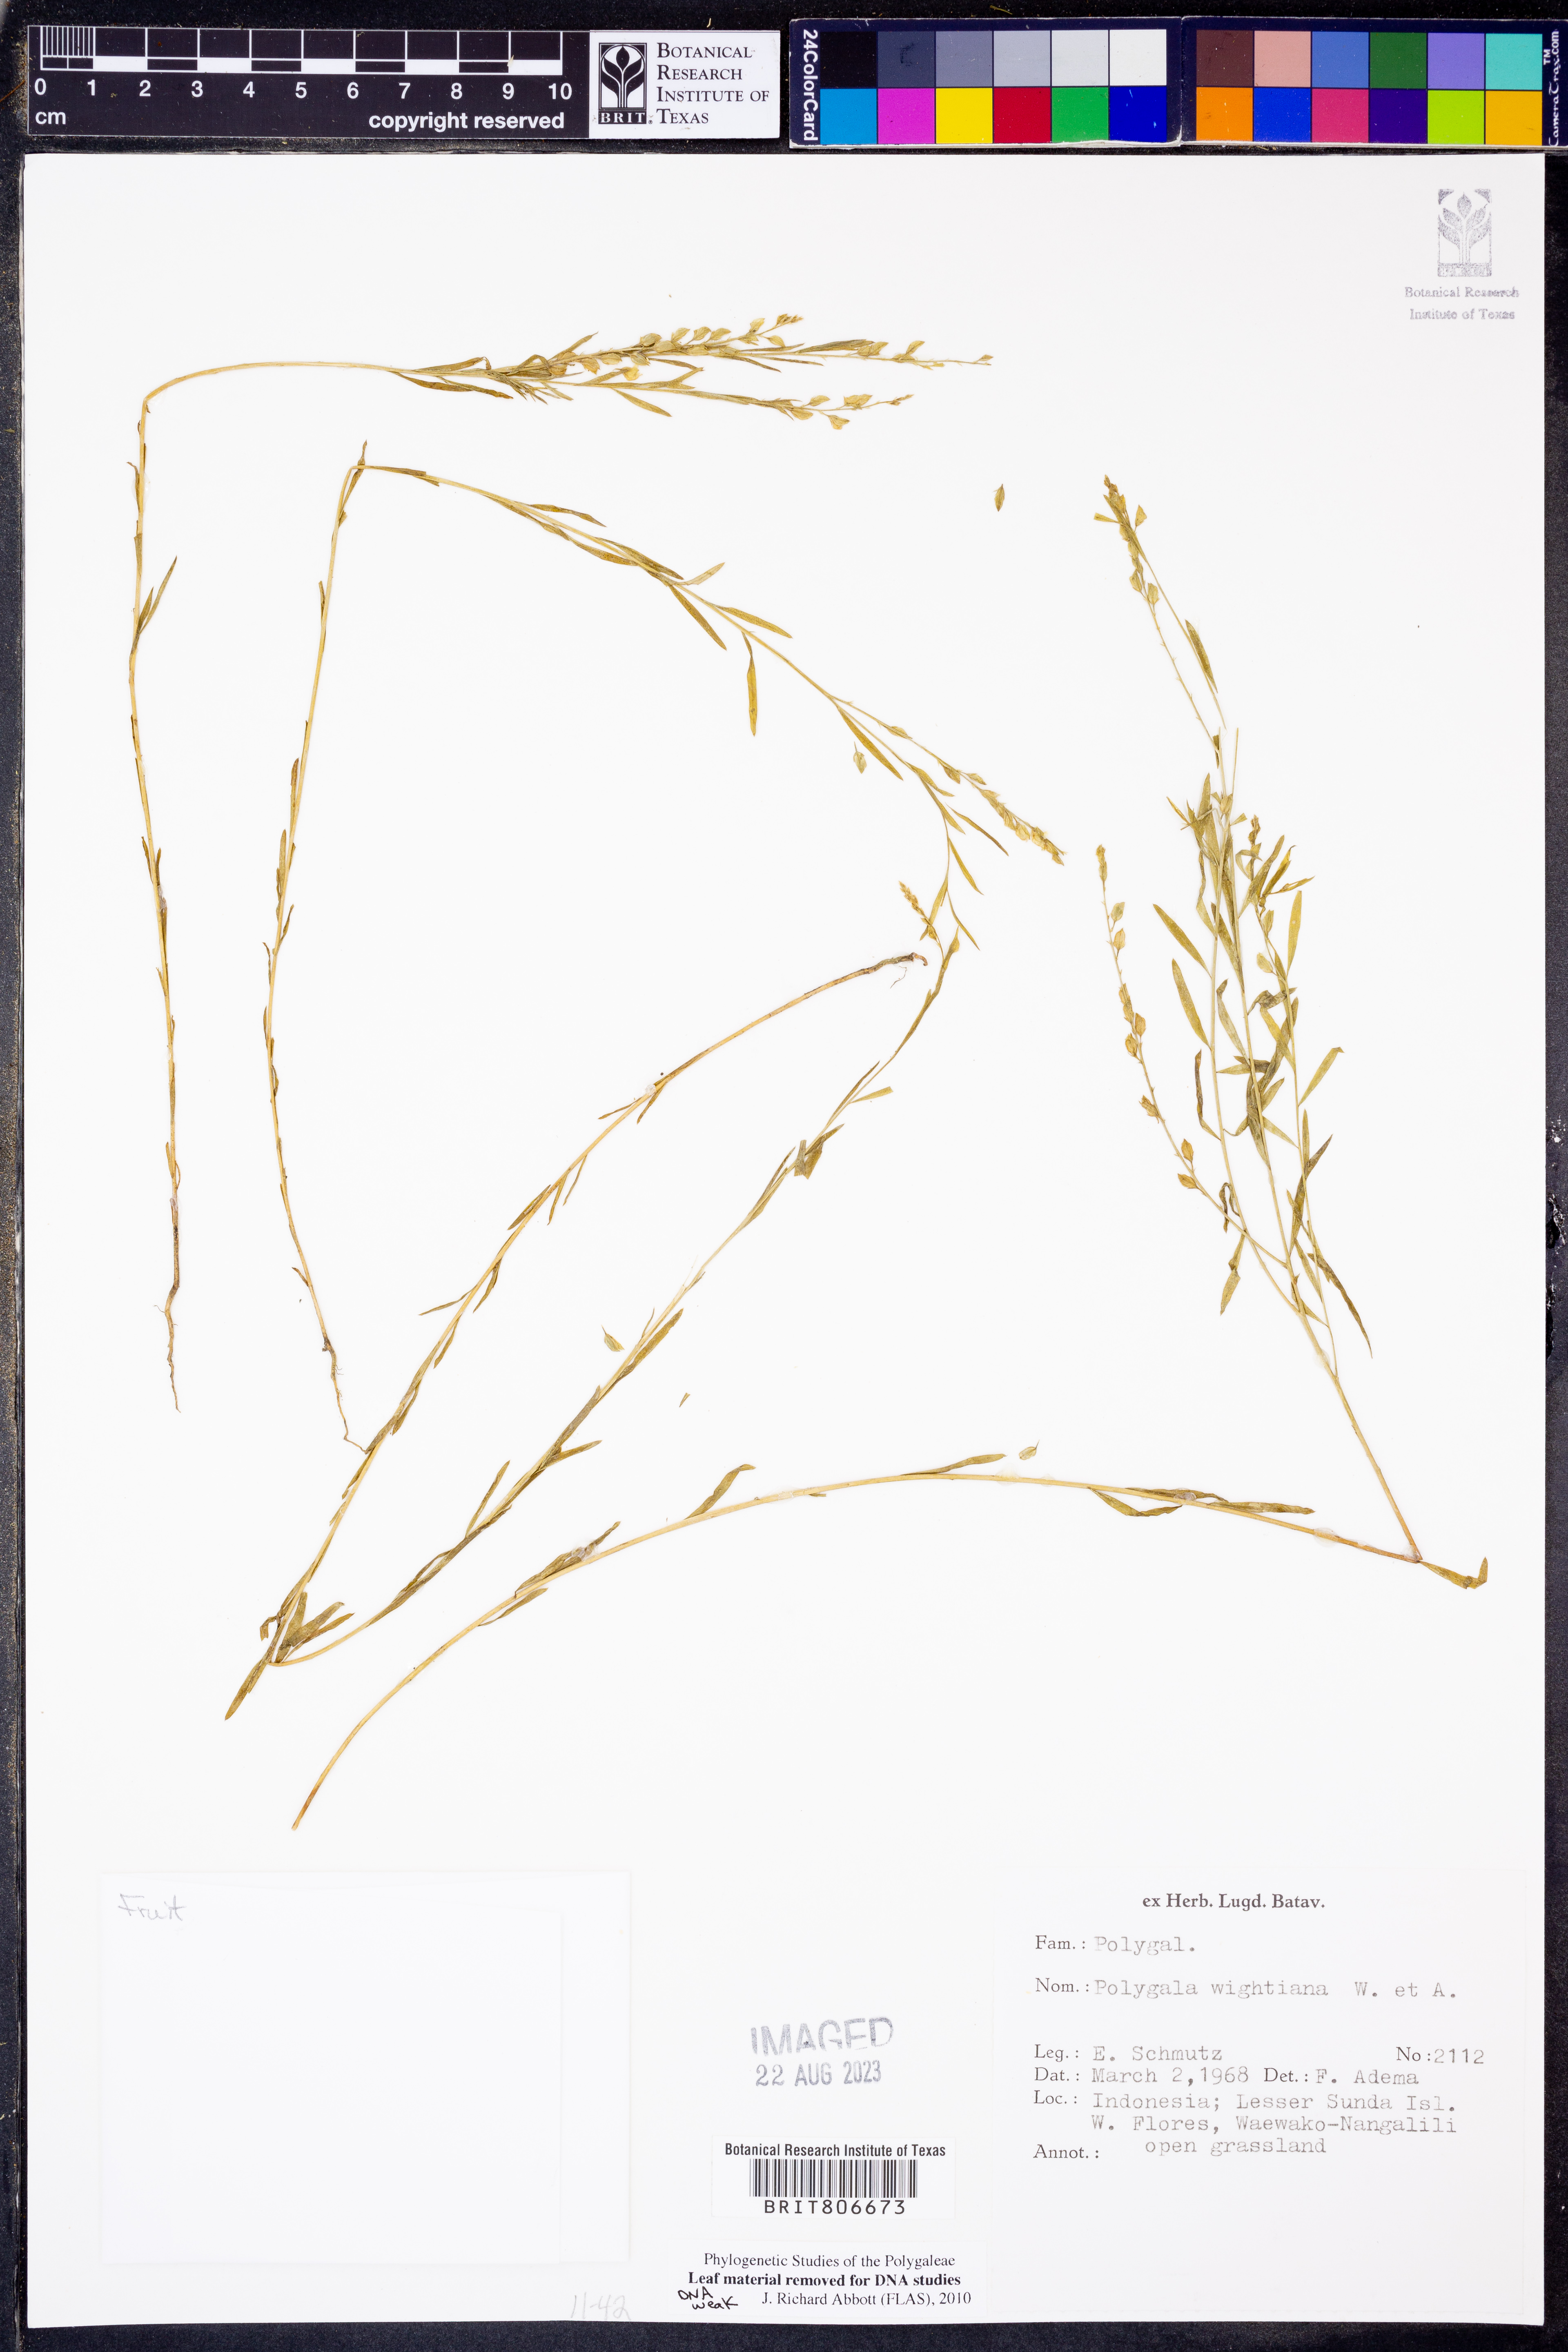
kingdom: Plantae
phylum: Tracheophyta
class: Magnoliopsida
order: Fabales
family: Polygalaceae
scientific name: Polygalaceae
